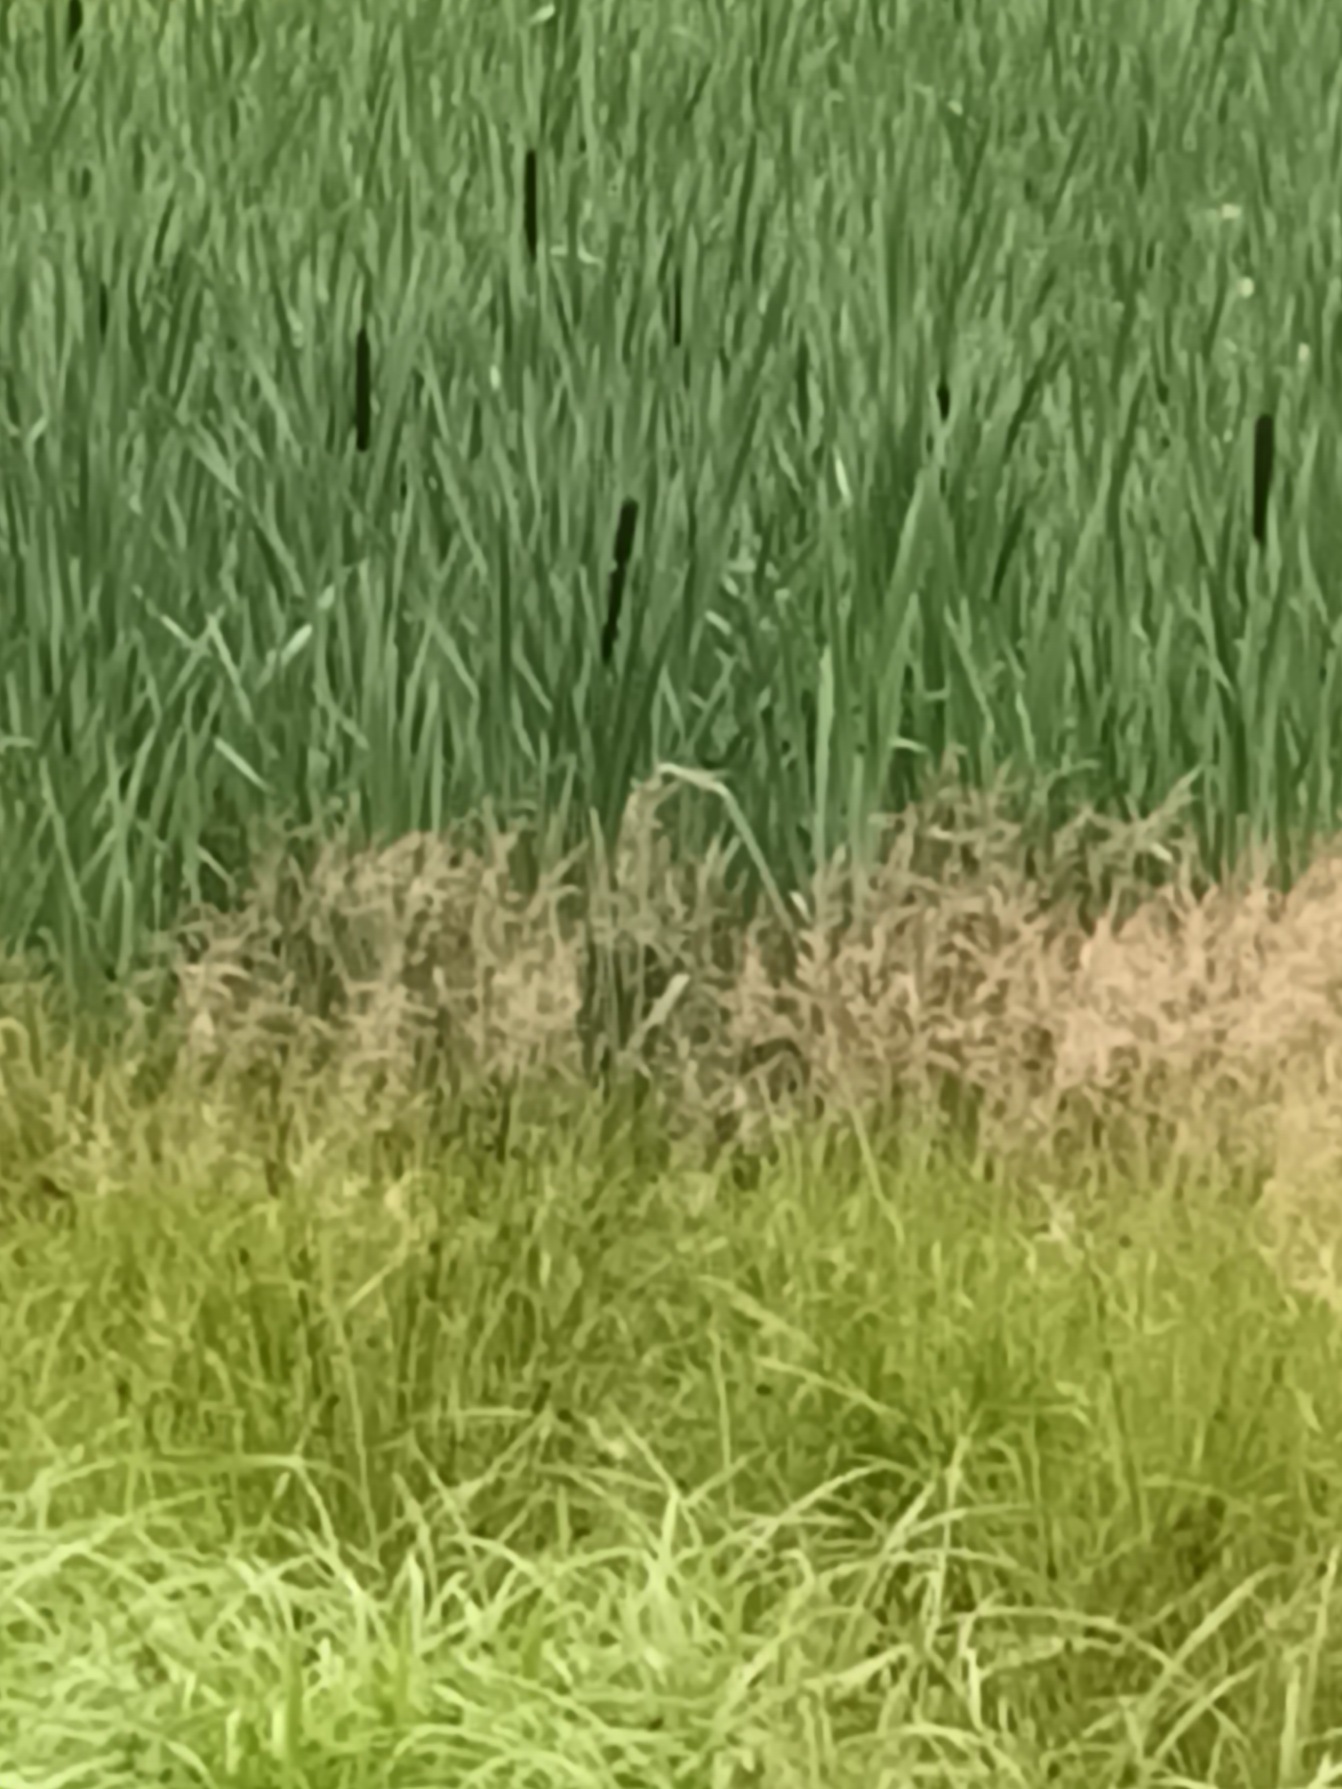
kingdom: Plantae
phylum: Tracheophyta
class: Liliopsida
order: Poales
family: Typhaceae
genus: Typha
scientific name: Typha latifolia
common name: Bredbladet dunhammer
